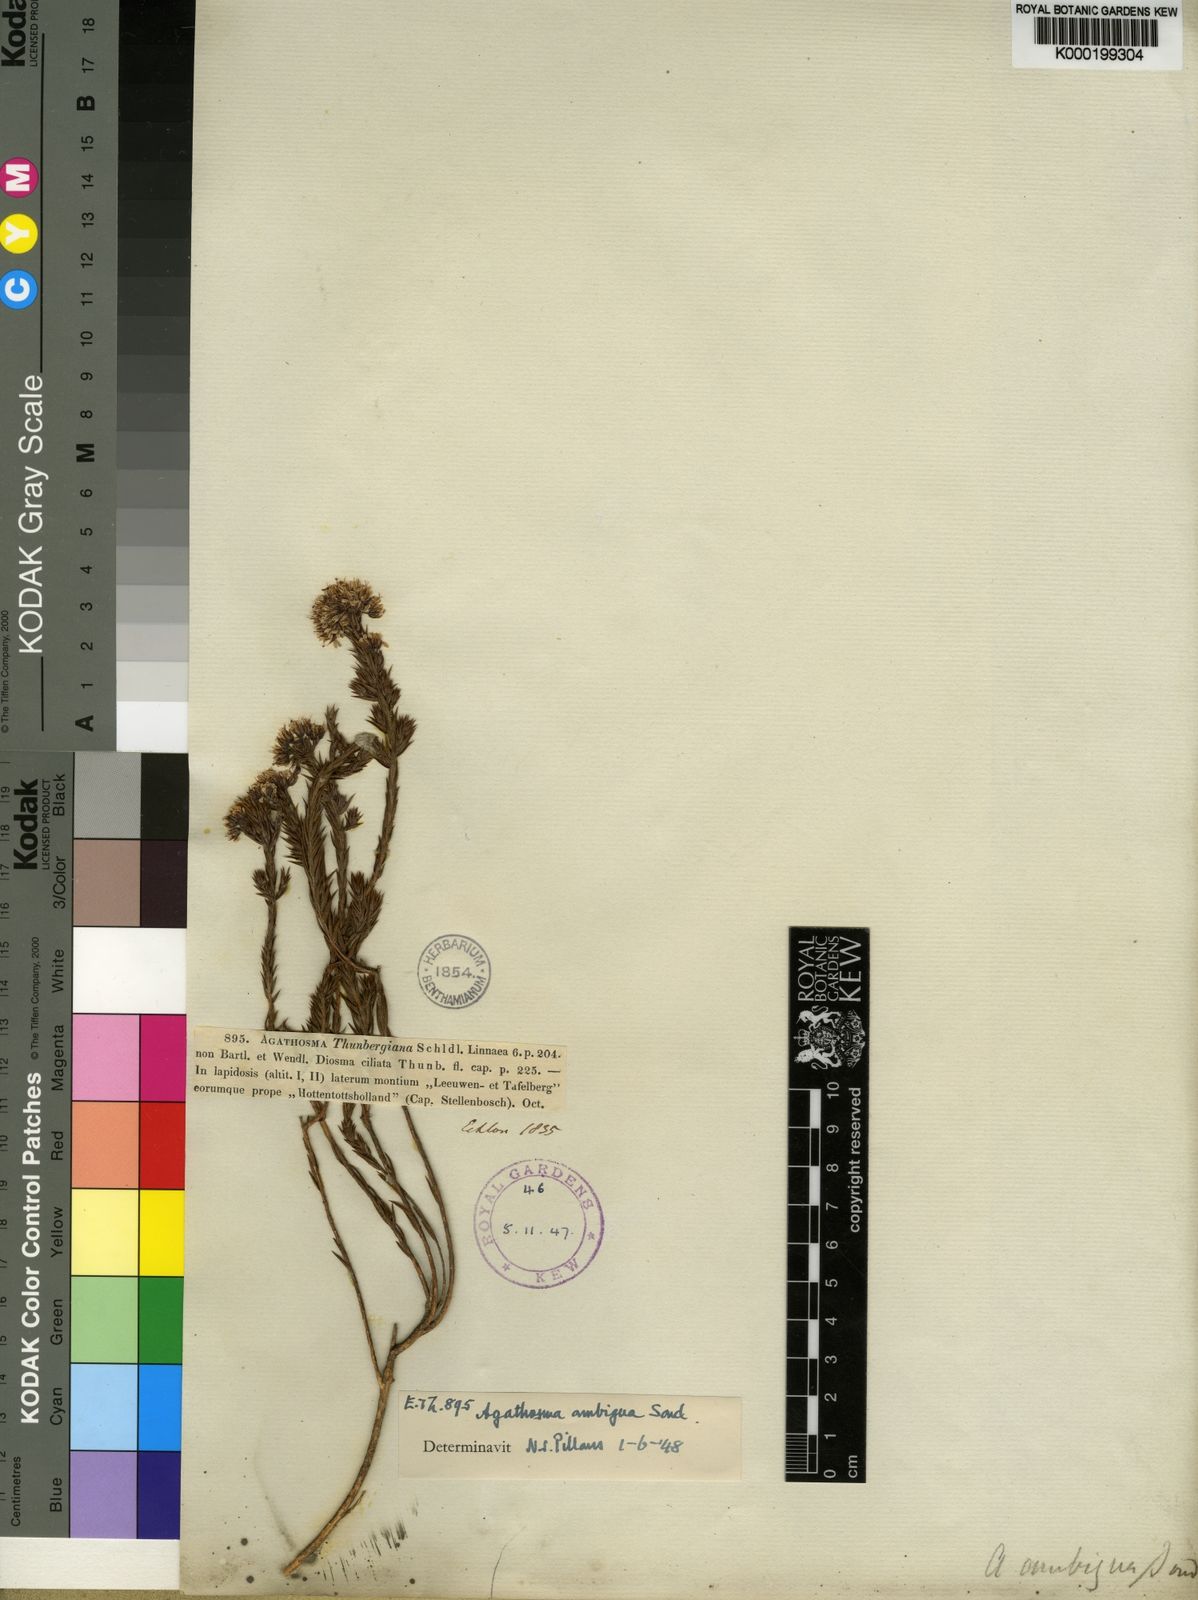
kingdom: Plantae
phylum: Tracheophyta
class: Magnoliopsida
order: Sapindales
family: Rutaceae
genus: Agathosma
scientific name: Agathosma
